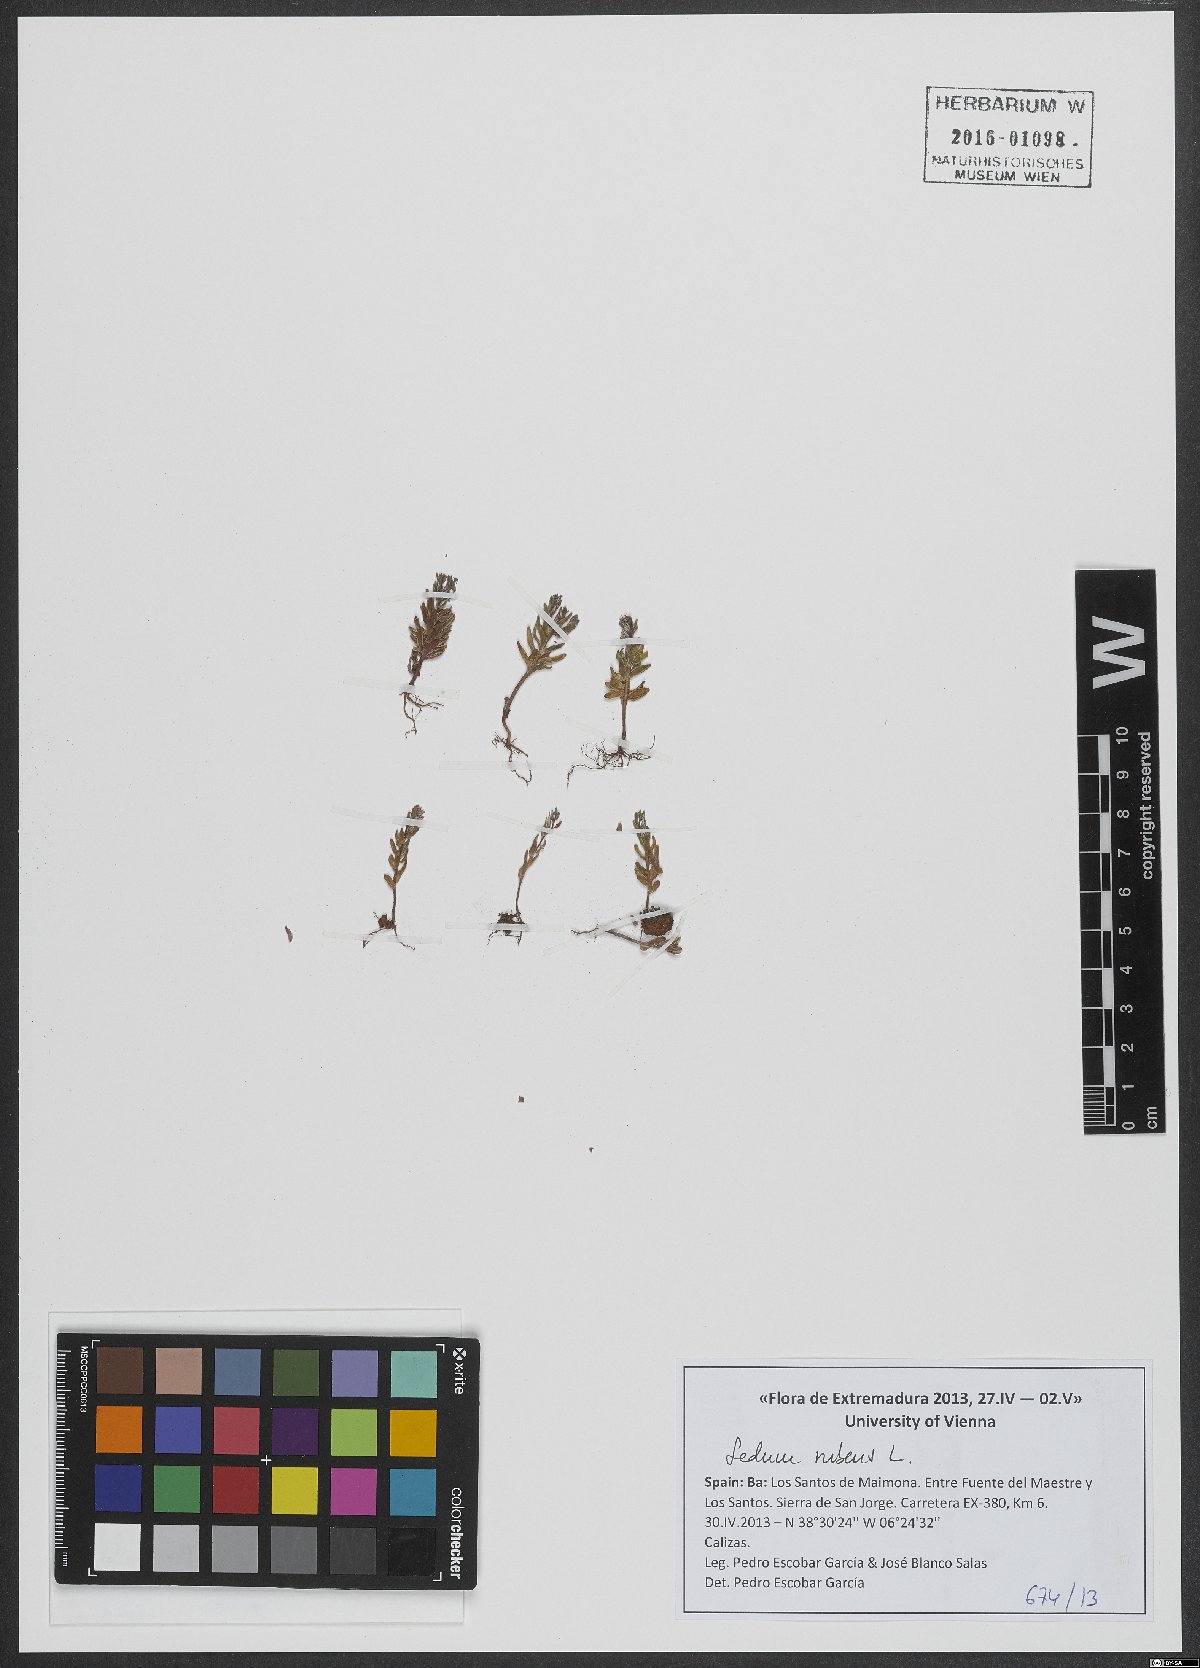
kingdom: Plantae
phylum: Tracheophyta
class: Magnoliopsida
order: Saxifragales
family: Crassulaceae
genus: Sedum
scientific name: Sedum andegavense
